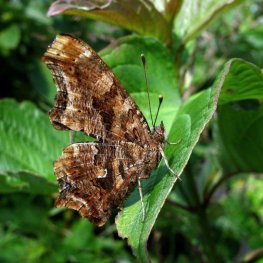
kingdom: Animalia
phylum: Arthropoda
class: Insecta
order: Lepidoptera
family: Nymphalidae
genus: Polygonia
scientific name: Polygonia comma
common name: Eastern Comma
